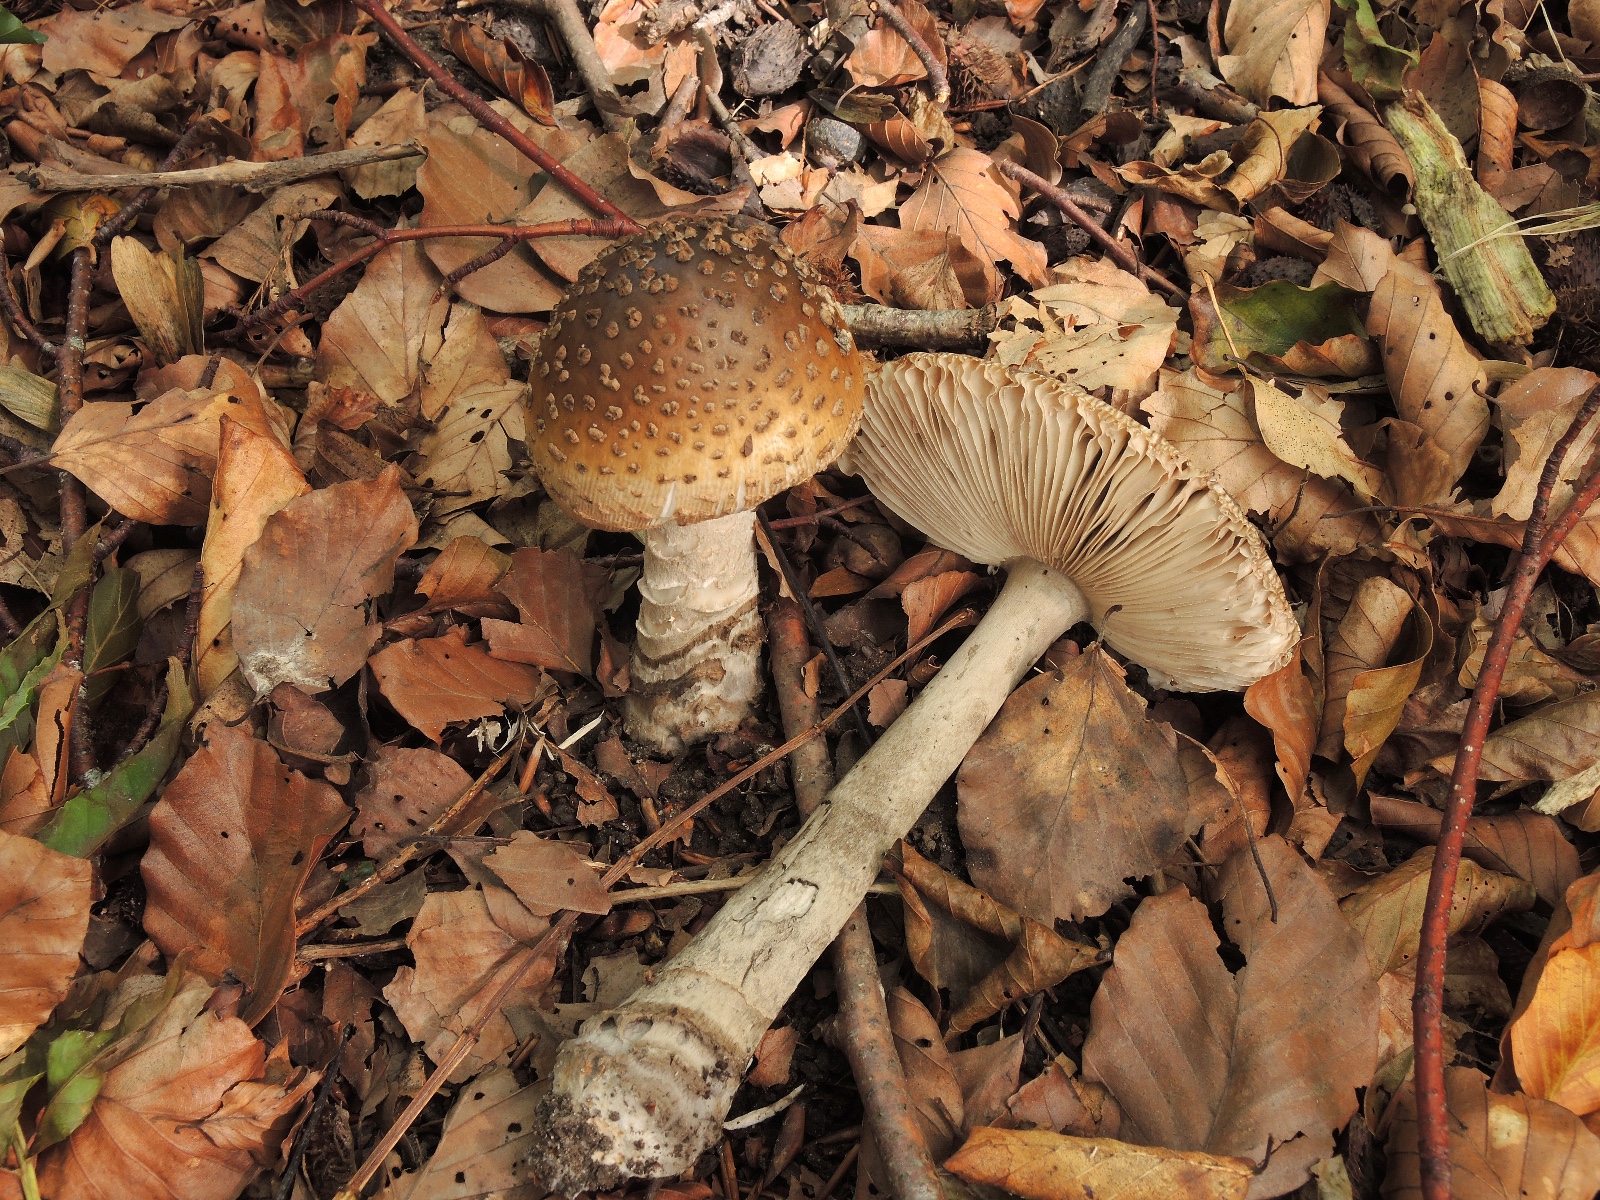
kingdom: Fungi
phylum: Basidiomycota
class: Agaricomycetes
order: Agaricales
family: Amanitaceae
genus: Amanita
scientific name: Amanita ceciliae
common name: stor kam-fluesvamp
